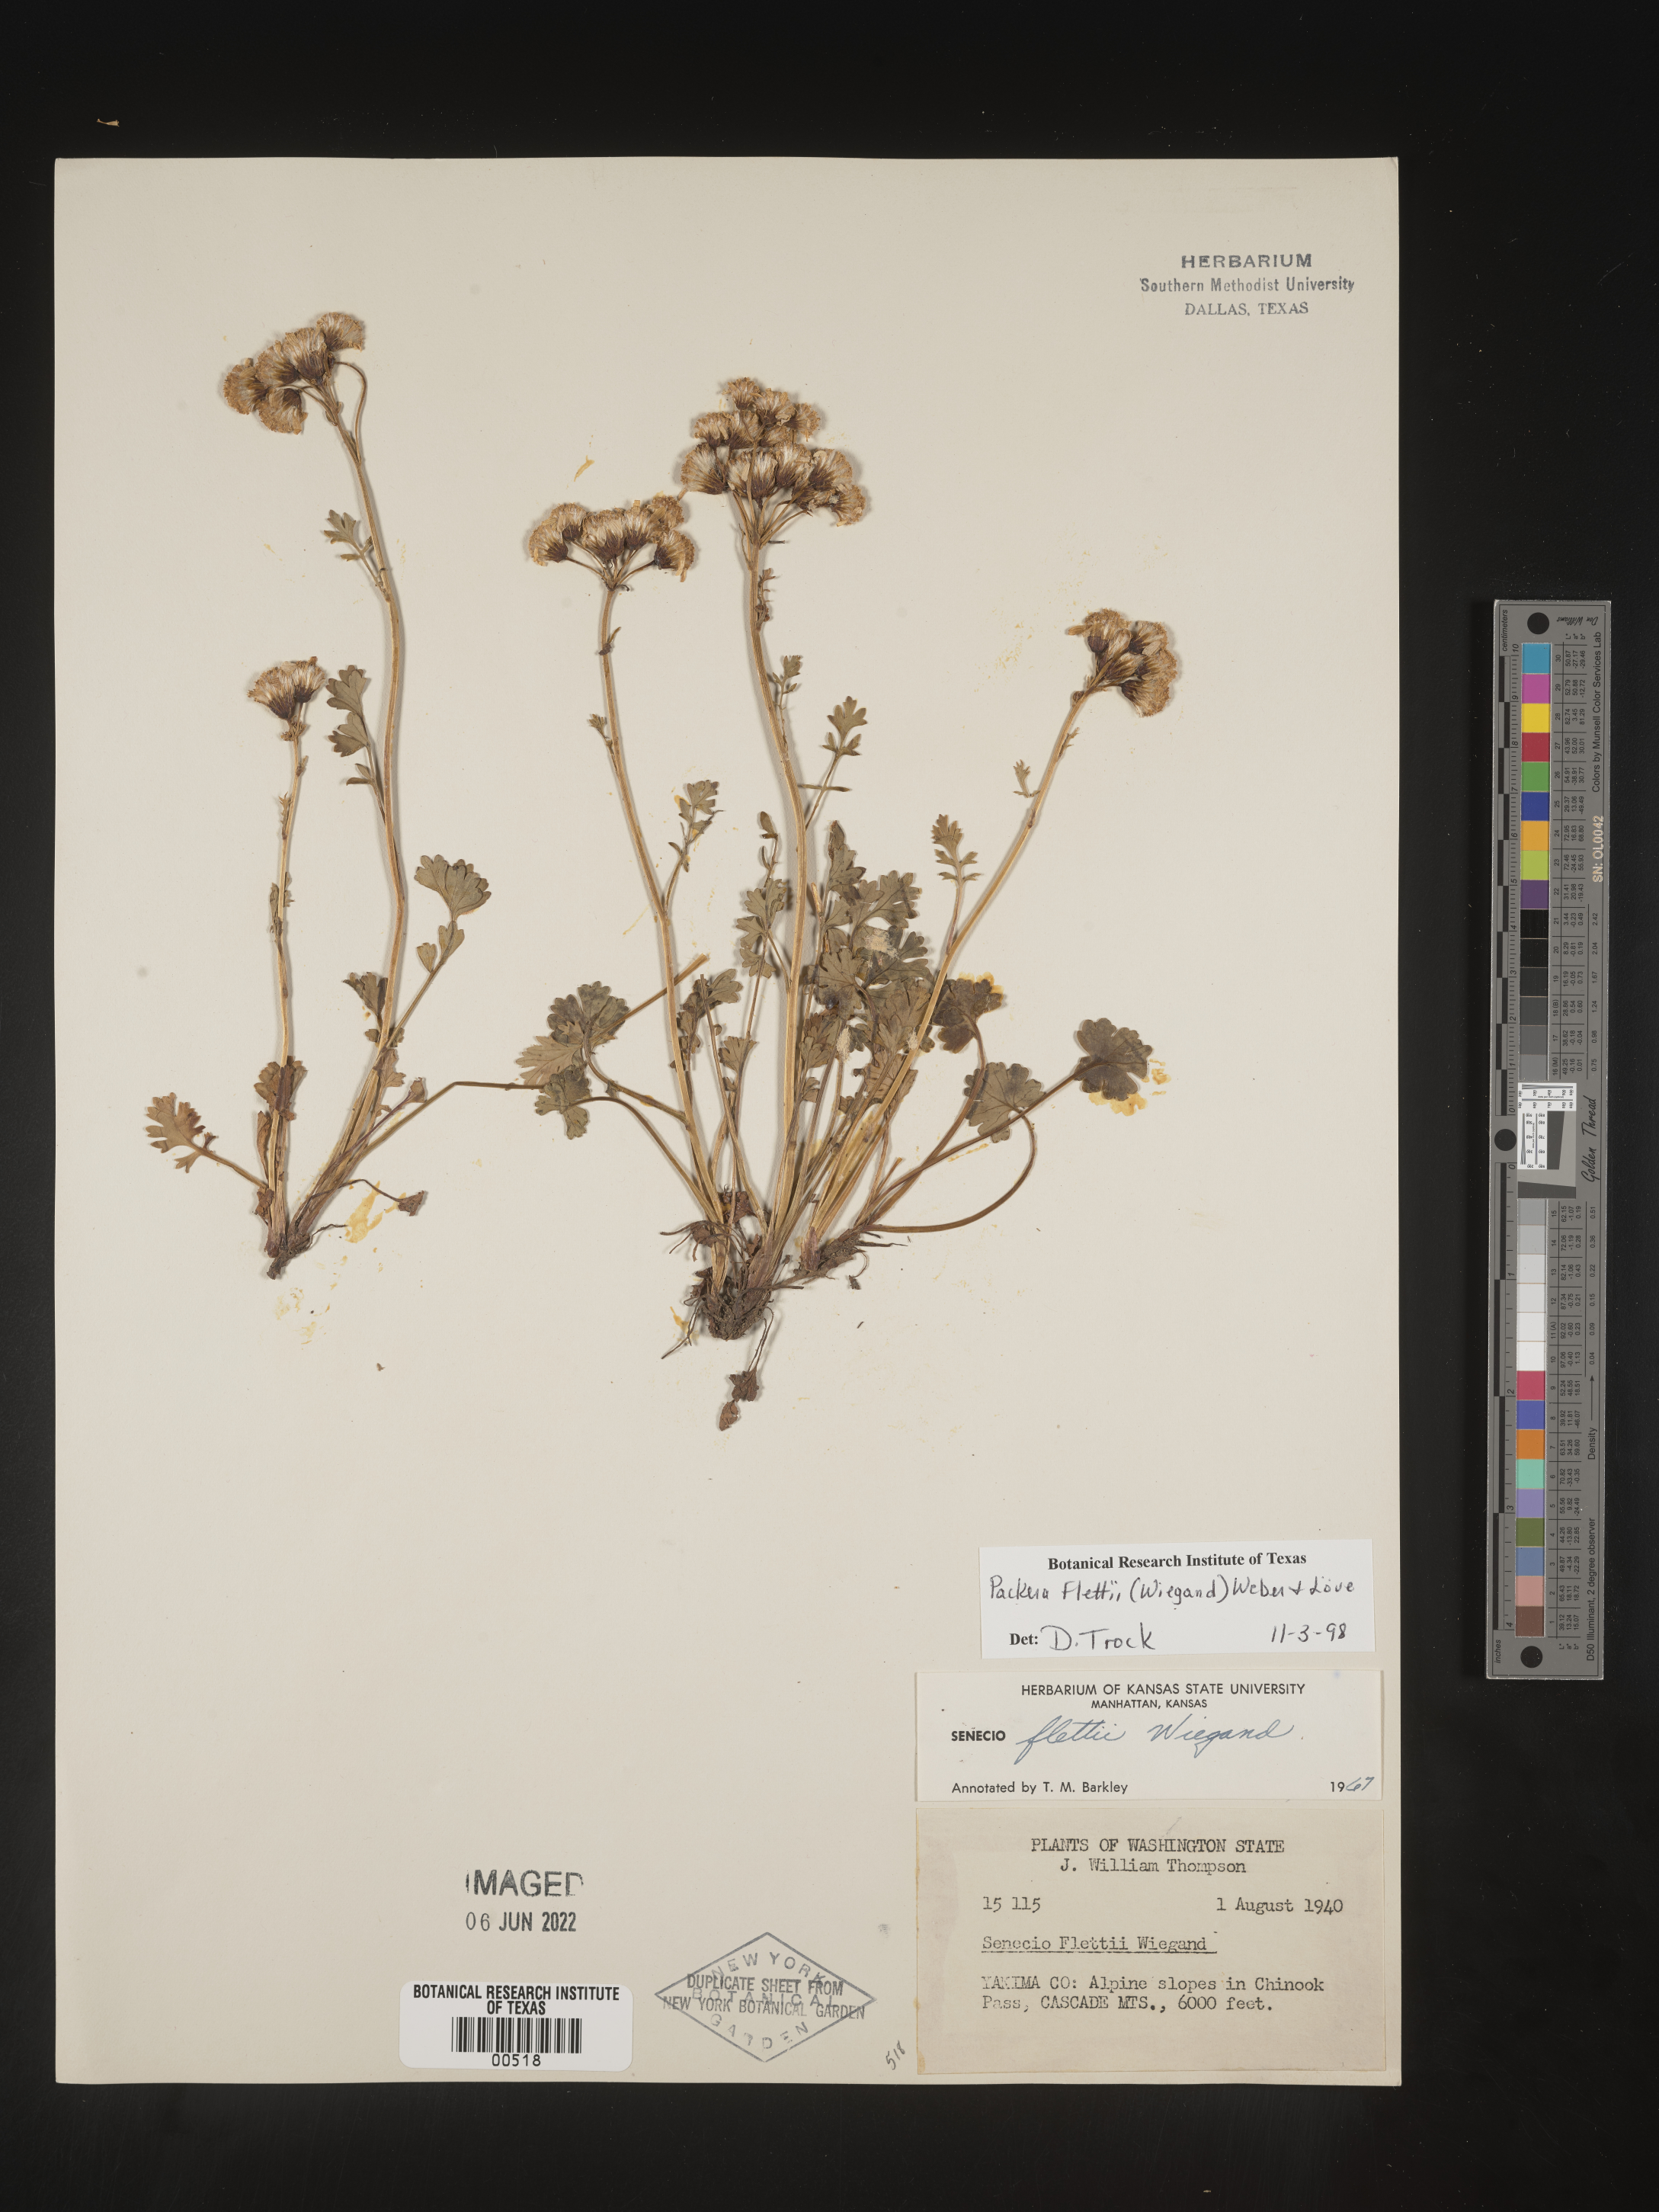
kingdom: Plantae
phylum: Tracheophyta
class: Magnoliopsida
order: Asterales
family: Asteraceae
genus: Packera
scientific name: Packera flettii
